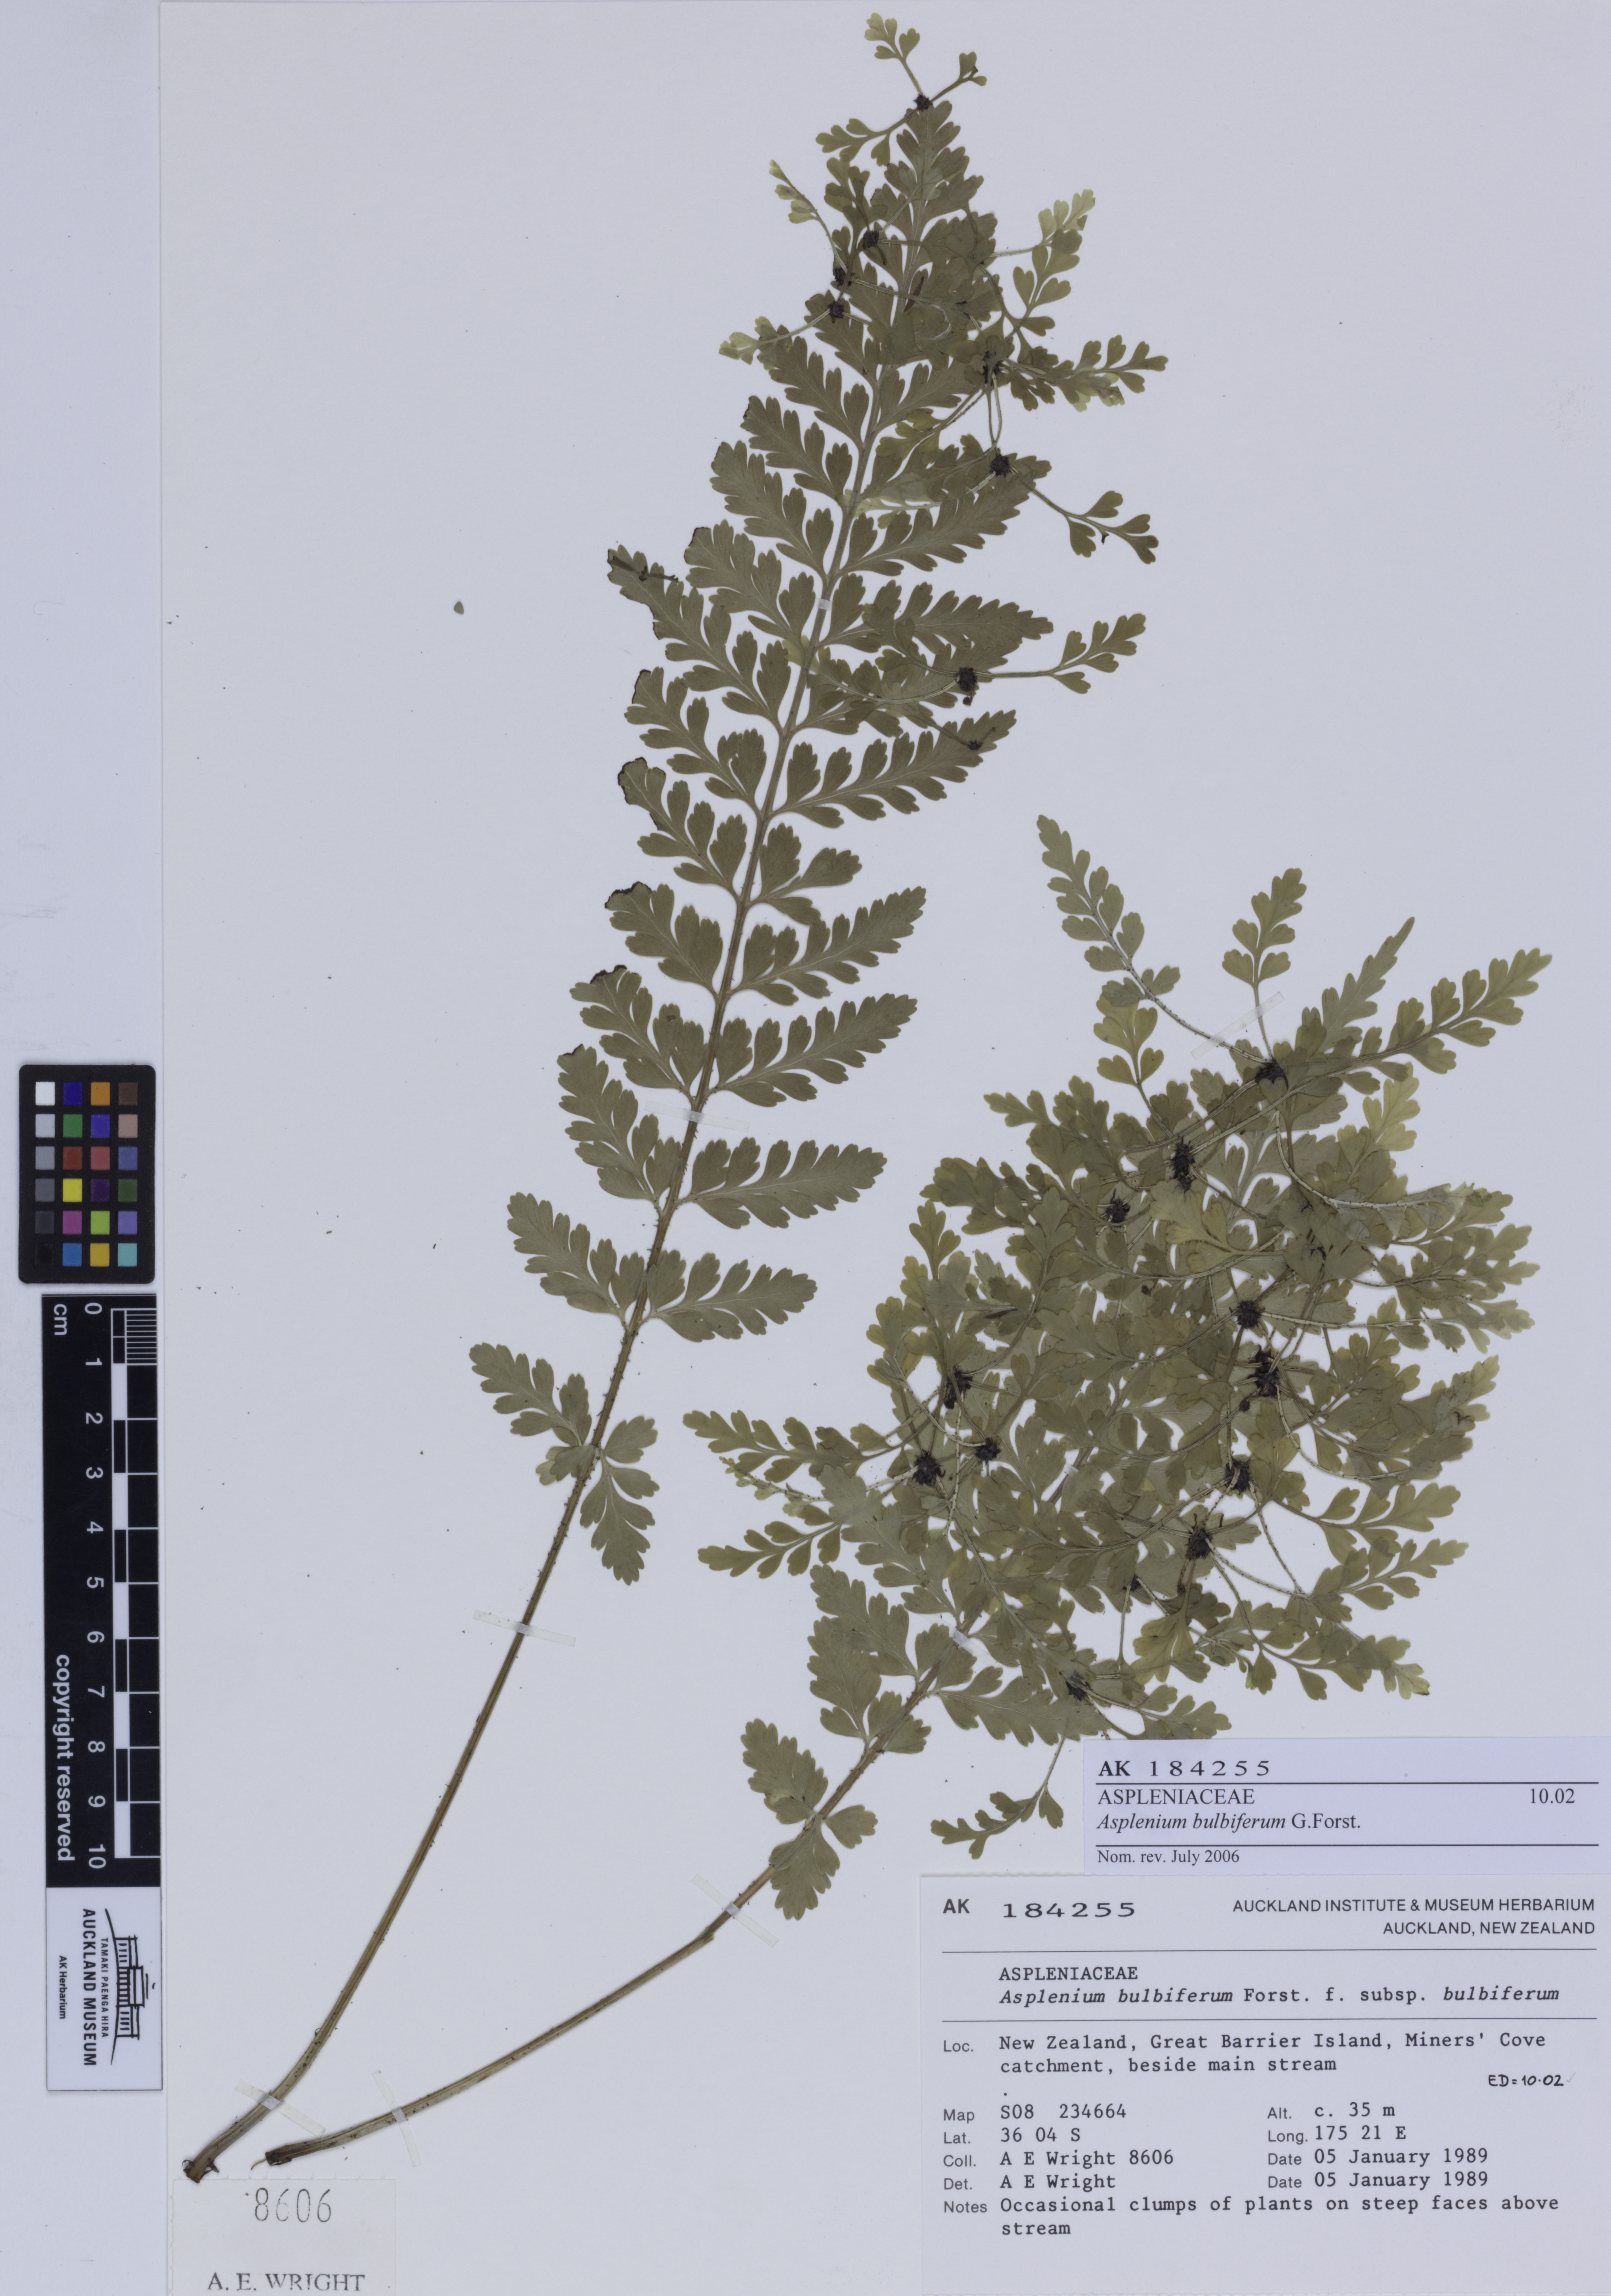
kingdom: Fungi
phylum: Ascomycota
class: Lecanoromycetes
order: Peltigerales
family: Lobariaceae
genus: Sticta
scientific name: Sticta subcaperata
